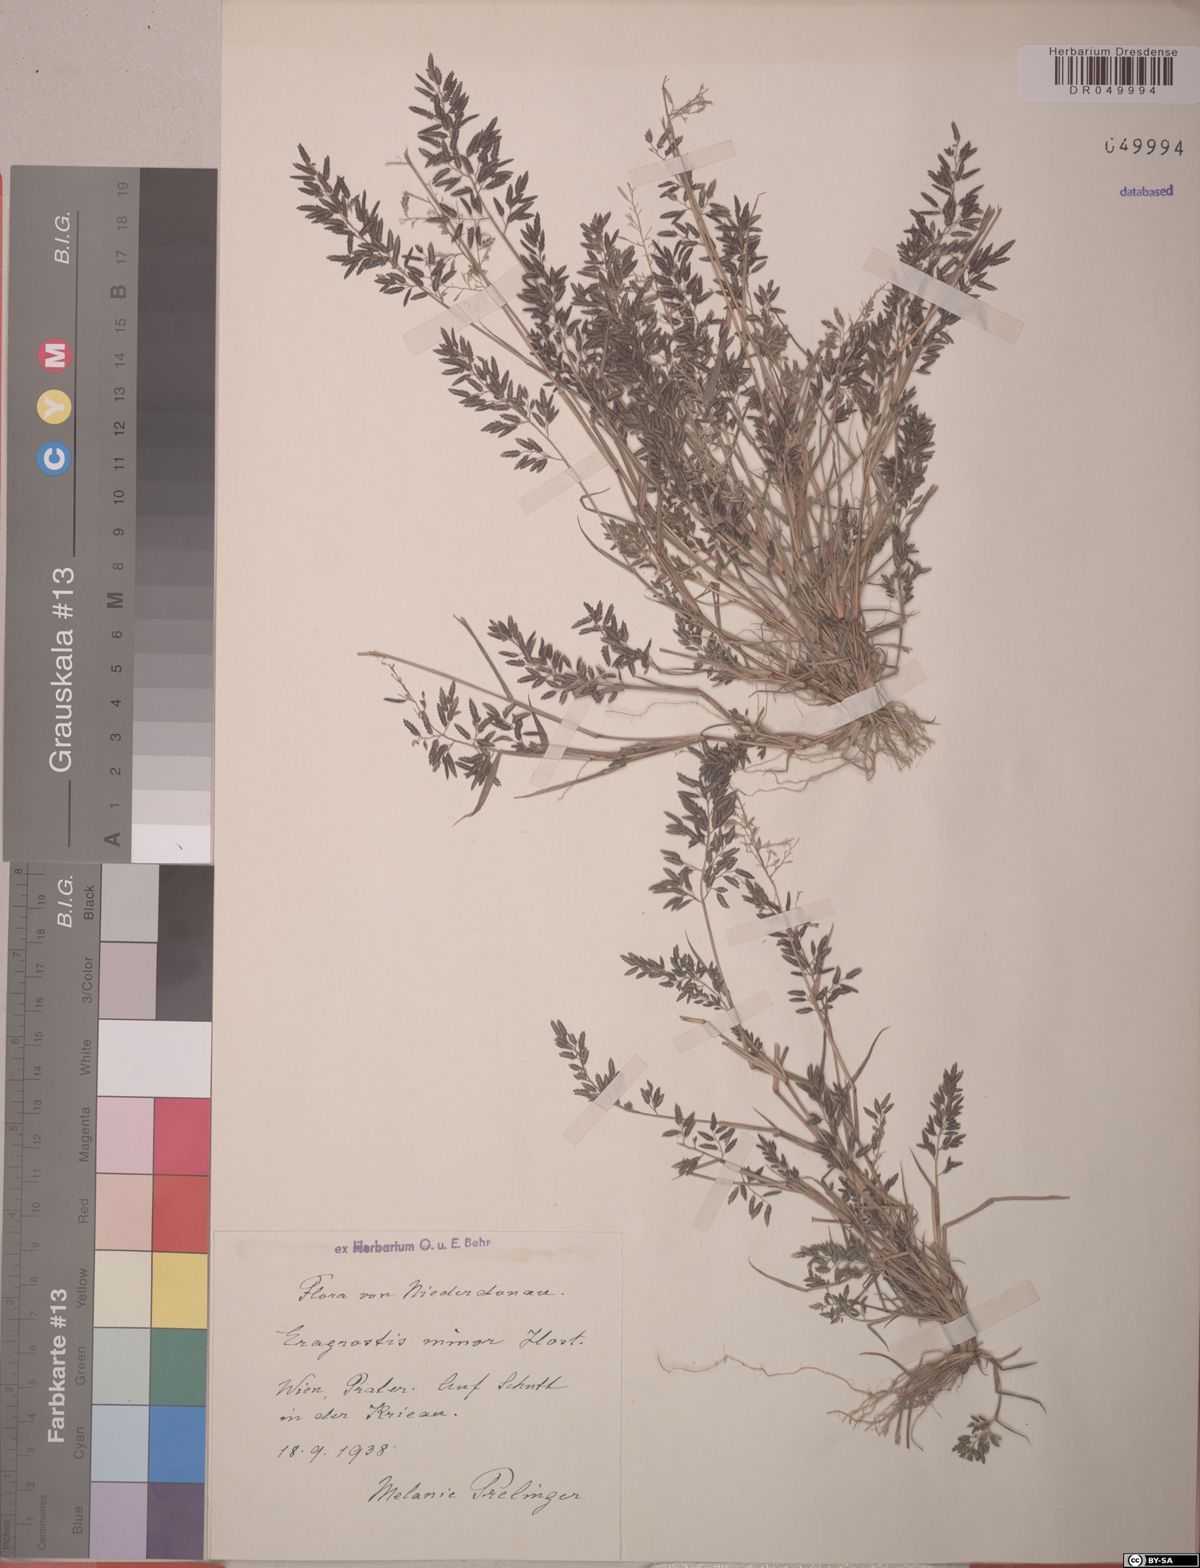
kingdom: Plantae
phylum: Tracheophyta
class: Liliopsida
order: Poales
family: Poaceae
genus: Eragrostis
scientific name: Eragrostis minor
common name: Small love-grass
